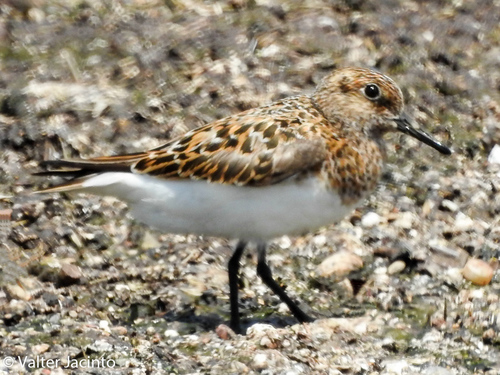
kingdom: Animalia
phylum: Chordata
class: Aves
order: Charadriiformes
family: Scolopacidae
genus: Calidris
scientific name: Calidris alba
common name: Sanderling
